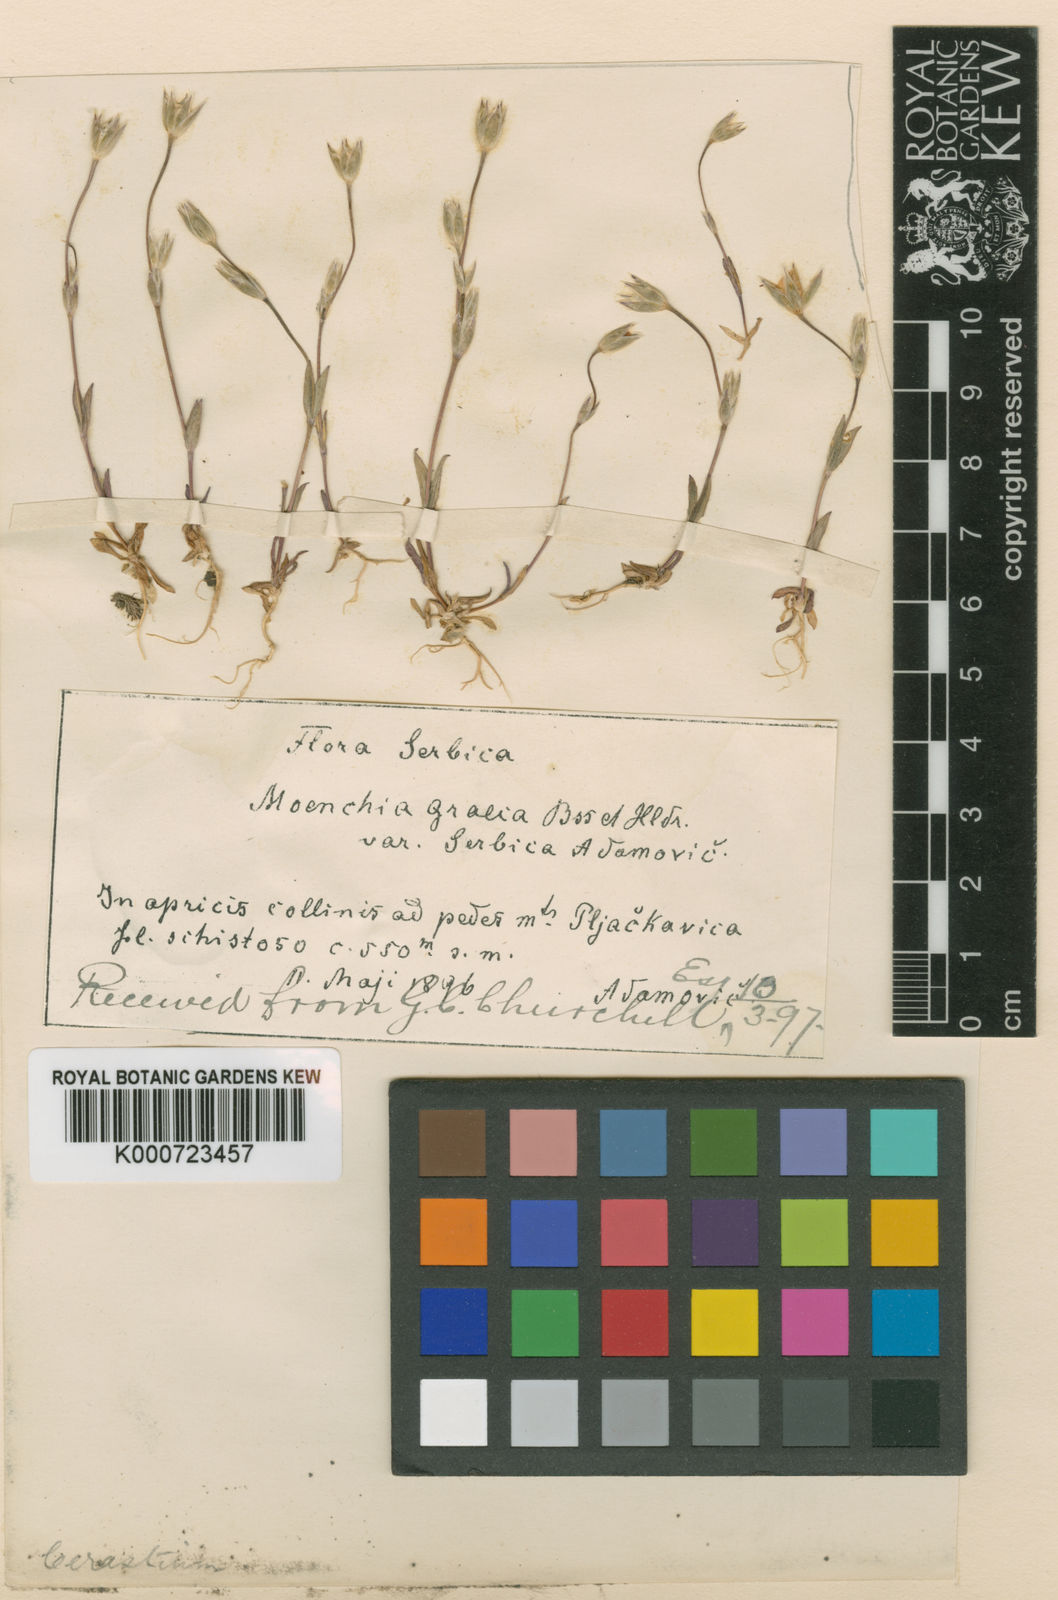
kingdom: Plantae
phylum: Tracheophyta
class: Magnoliopsida
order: Caryophyllales
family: Caryophyllaceae
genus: Moenchia
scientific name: Moenchia graeca
